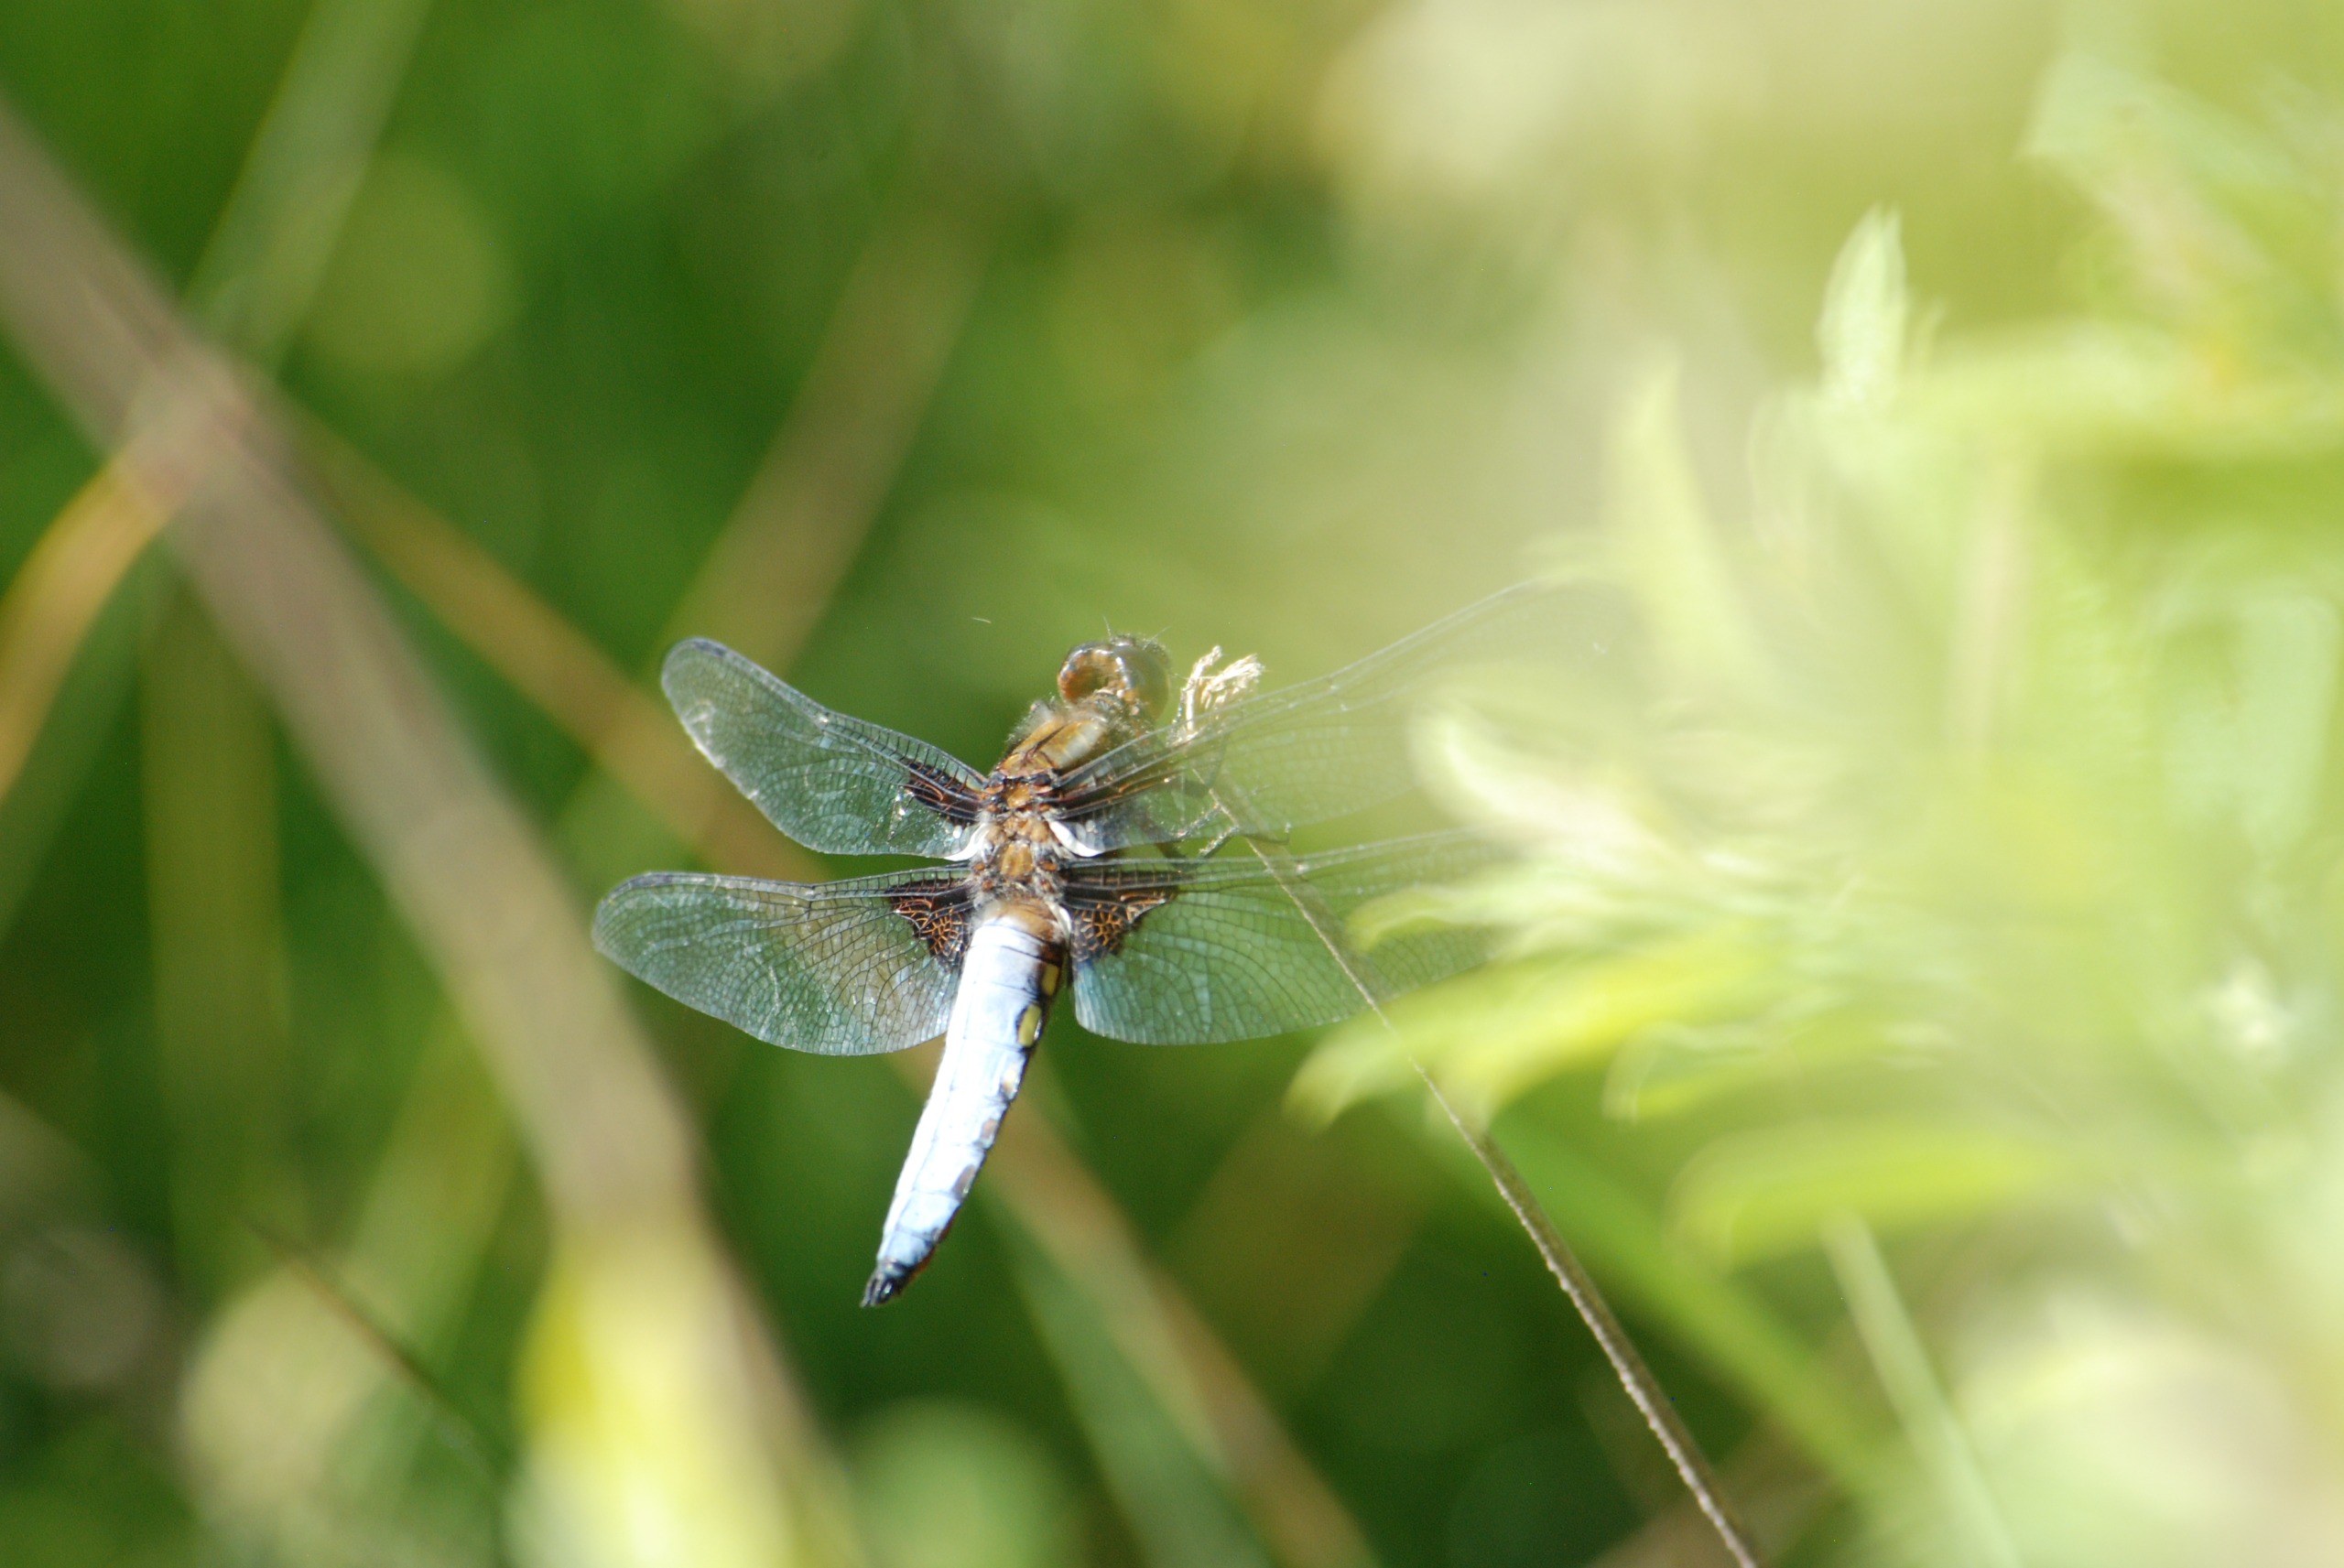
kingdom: Animalia
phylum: Arthropoda
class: Insecta
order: Odonata
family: Libellulidae
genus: Libellula
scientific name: Libellula depressa
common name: Blå libel
